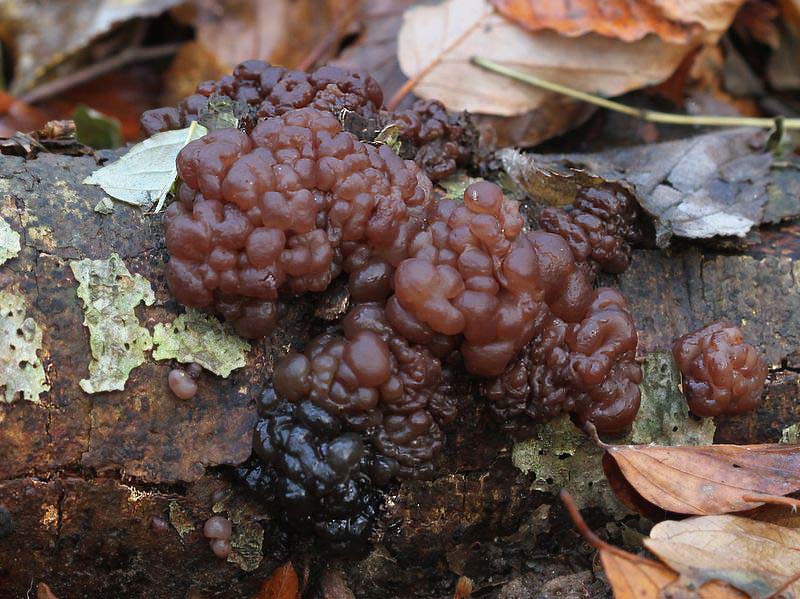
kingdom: Fungi
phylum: Ascomycota
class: Leotiomycetes
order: Helotiales
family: Gelatinodiscaceae
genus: Ascotremella
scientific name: Ascotremella faginea
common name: hjerne-bævreskive
